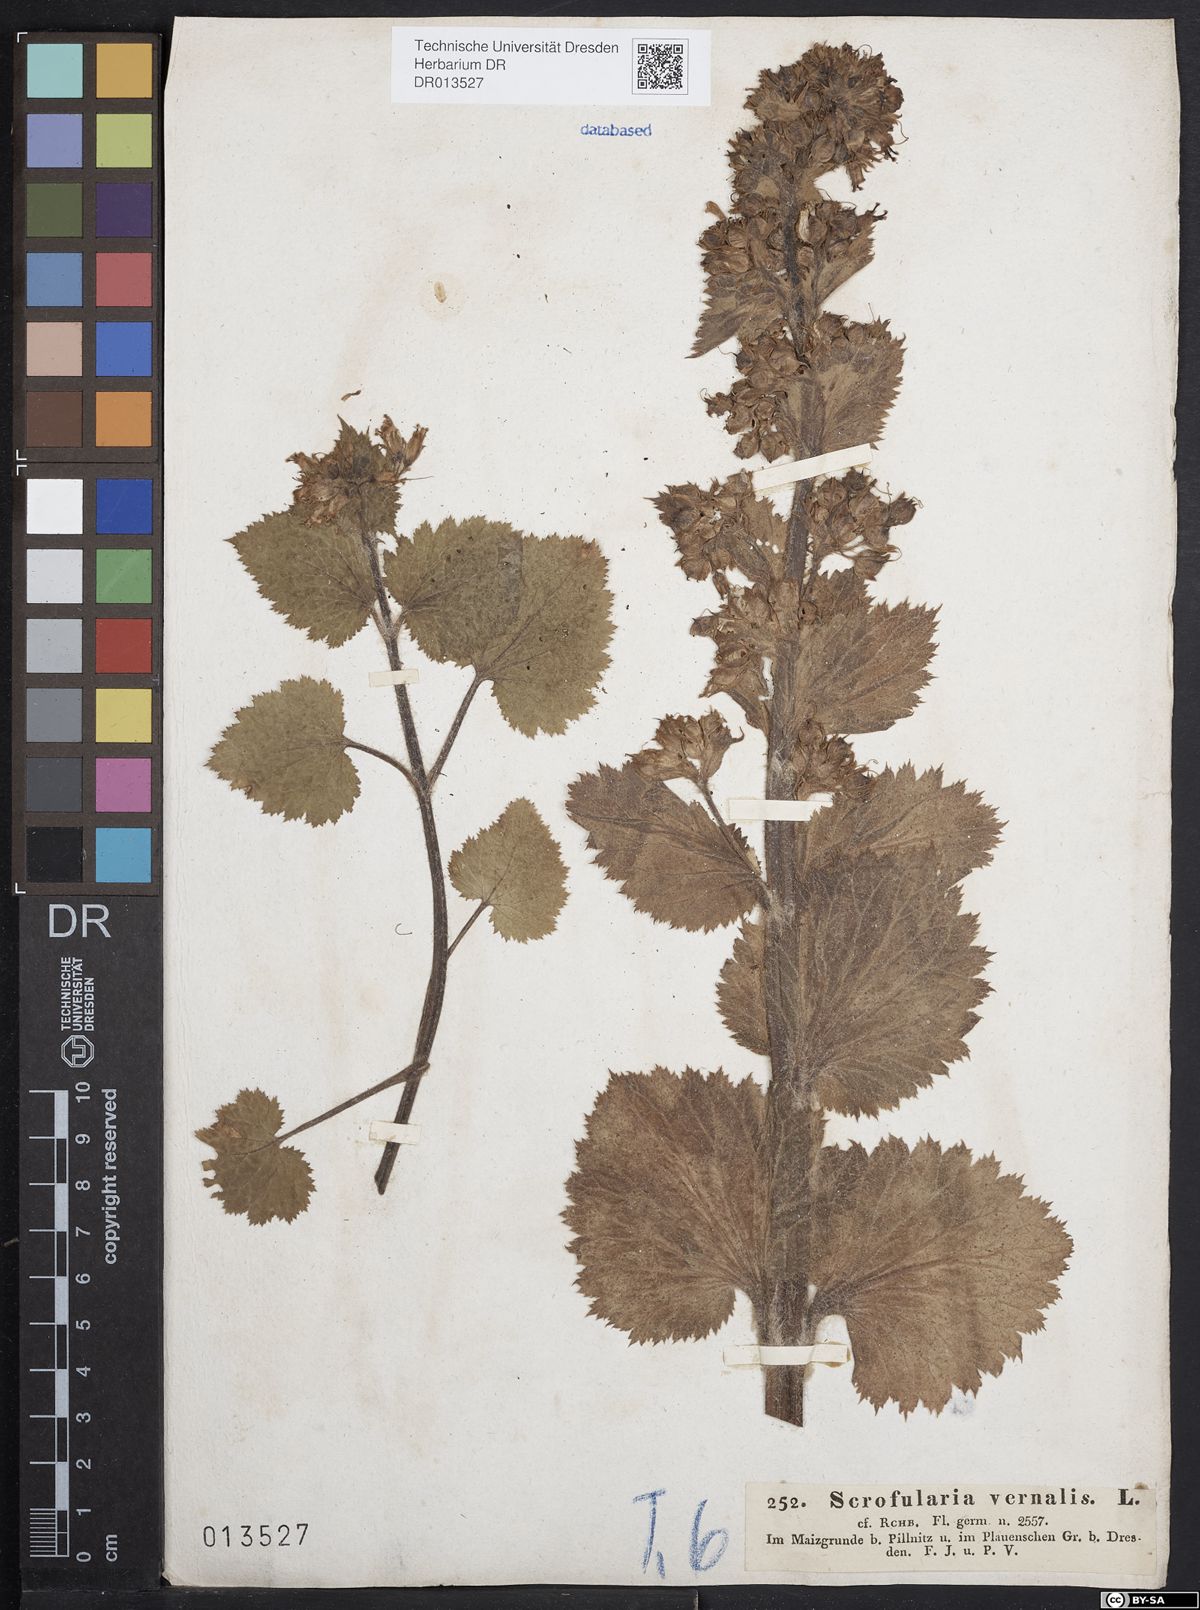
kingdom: Plantae
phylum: Tracheophyta
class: Magnoliopsida
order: Lamiales
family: Scrophulariaceae
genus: Scrophularia
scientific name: Scrophularia vernalis
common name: Yellow figwort
